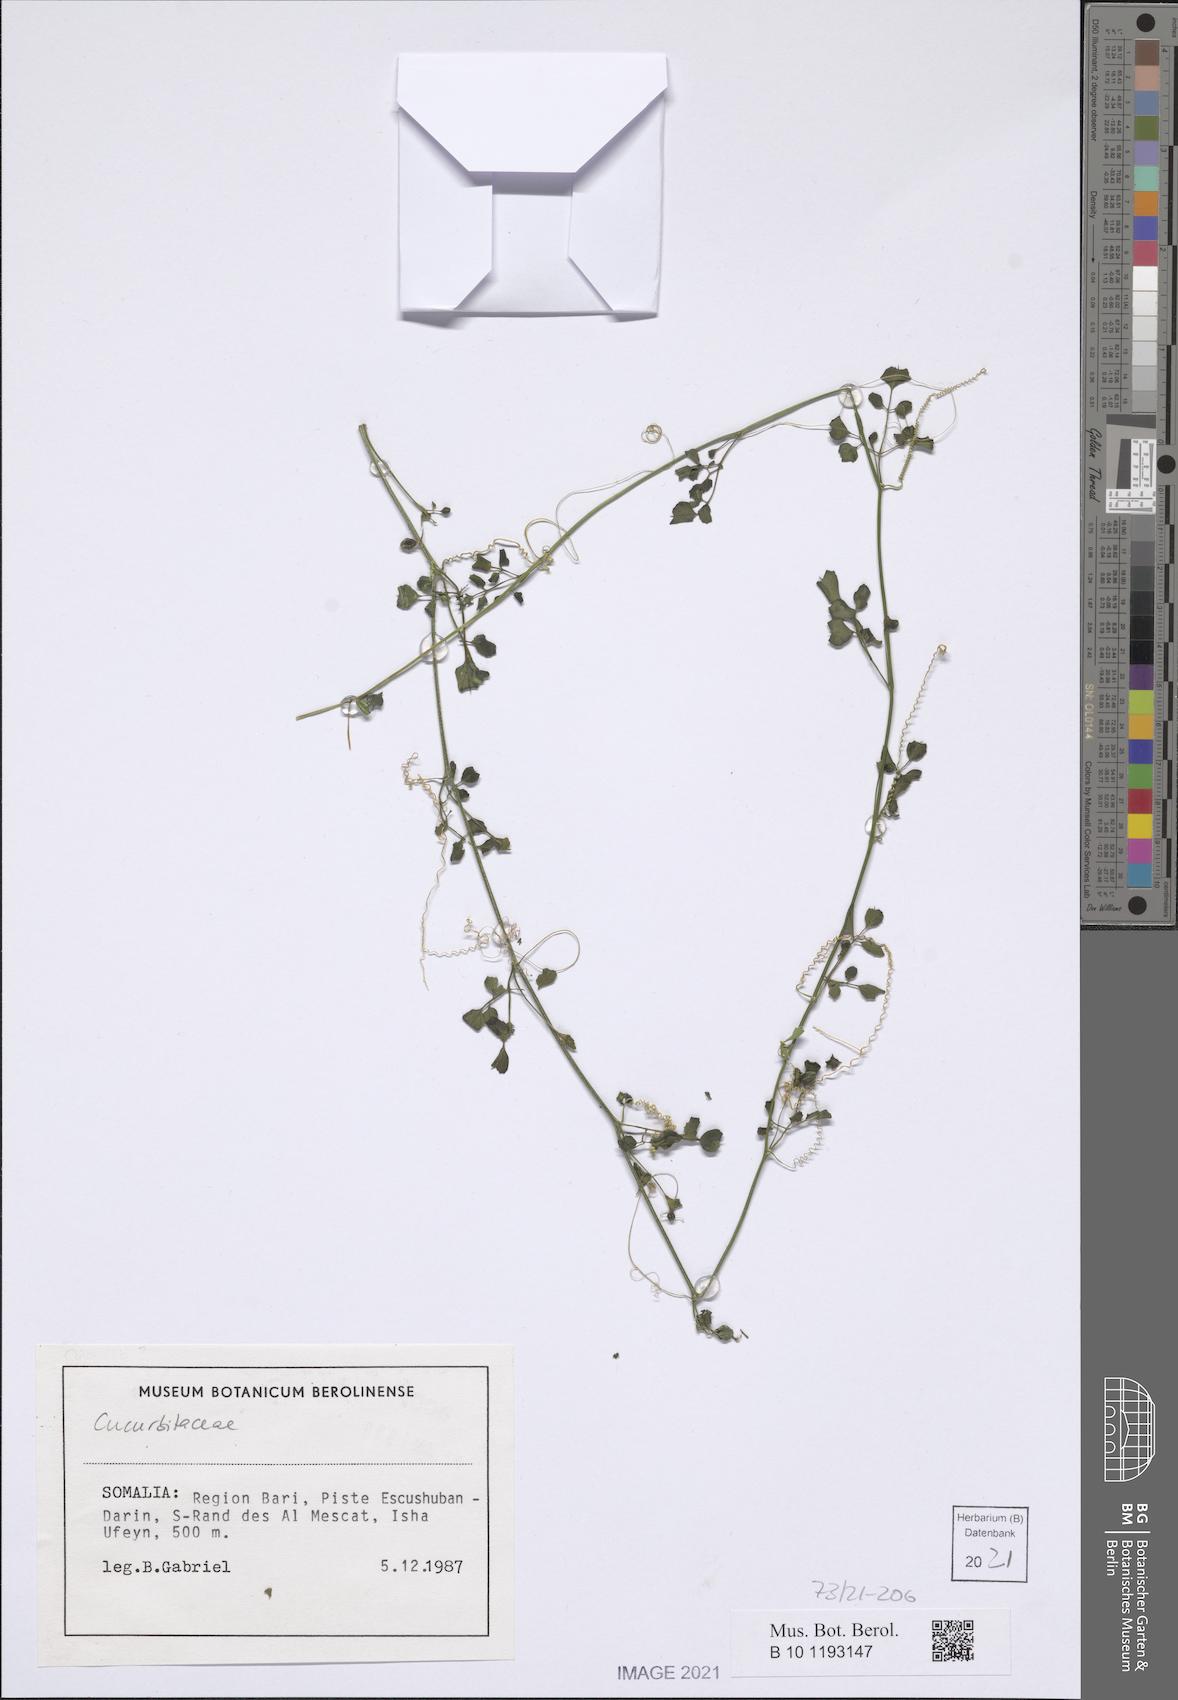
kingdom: Plantae
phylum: Tracheophyta
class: Magnoliopsida
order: Cucurbitales
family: Cucurbitaceae
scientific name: Cucurbitaceae
